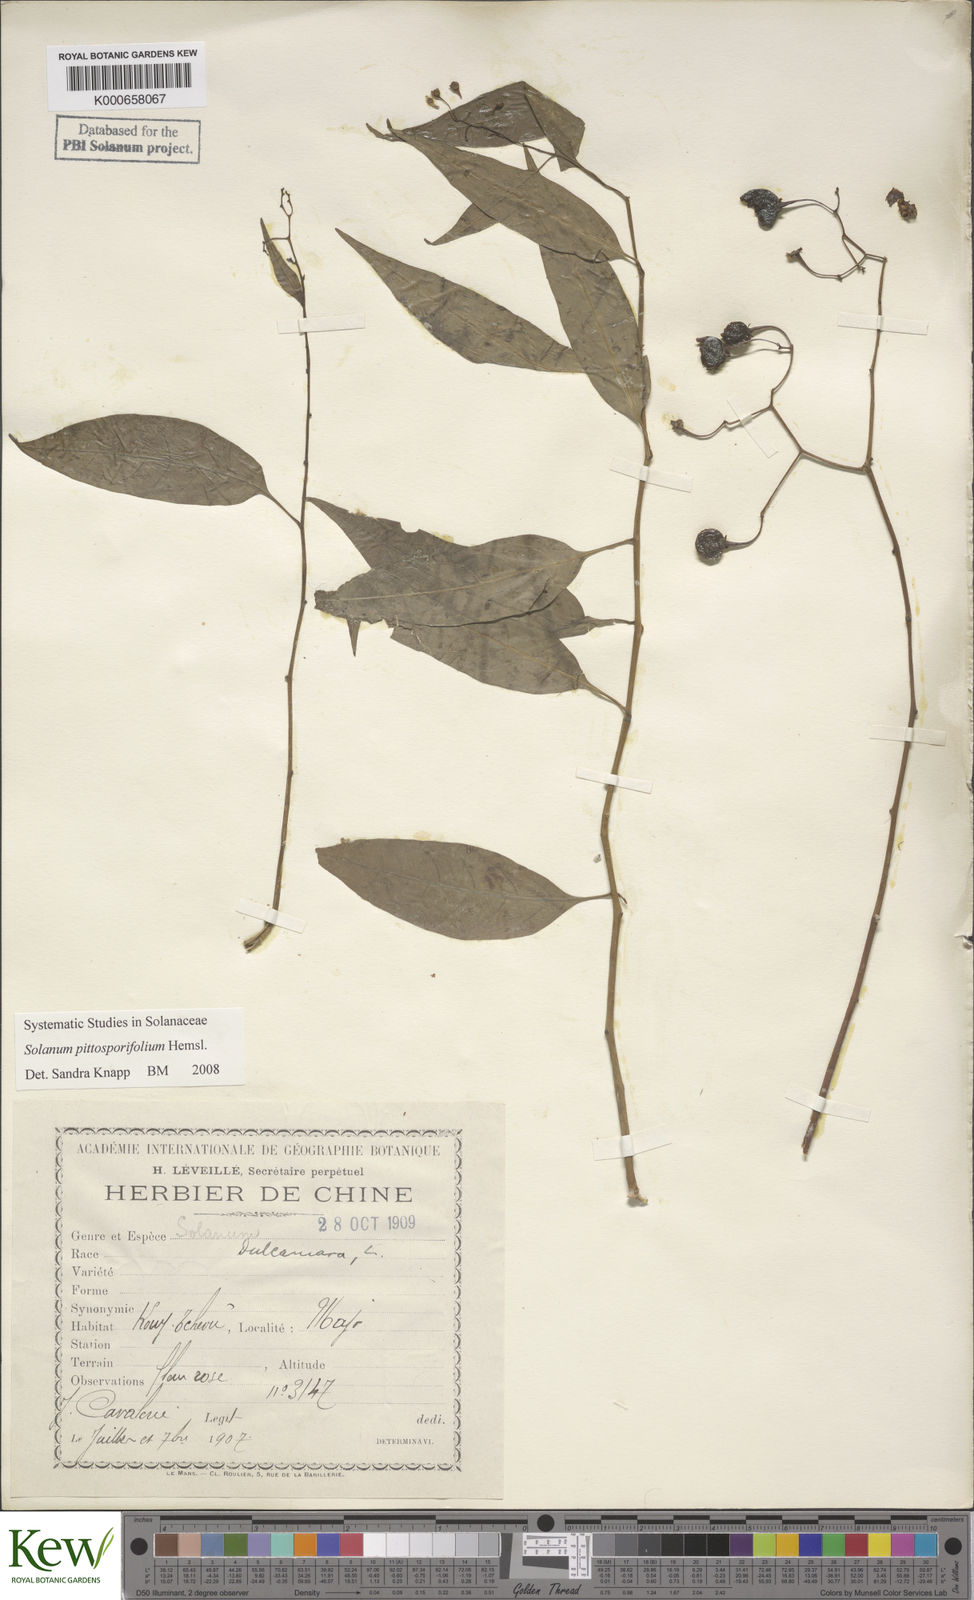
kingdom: Plantae
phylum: Tracheophyta
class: Magnoliopsida
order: Solanales
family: Solanaceae
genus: Solanum
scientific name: Solanum pittosporifolium
